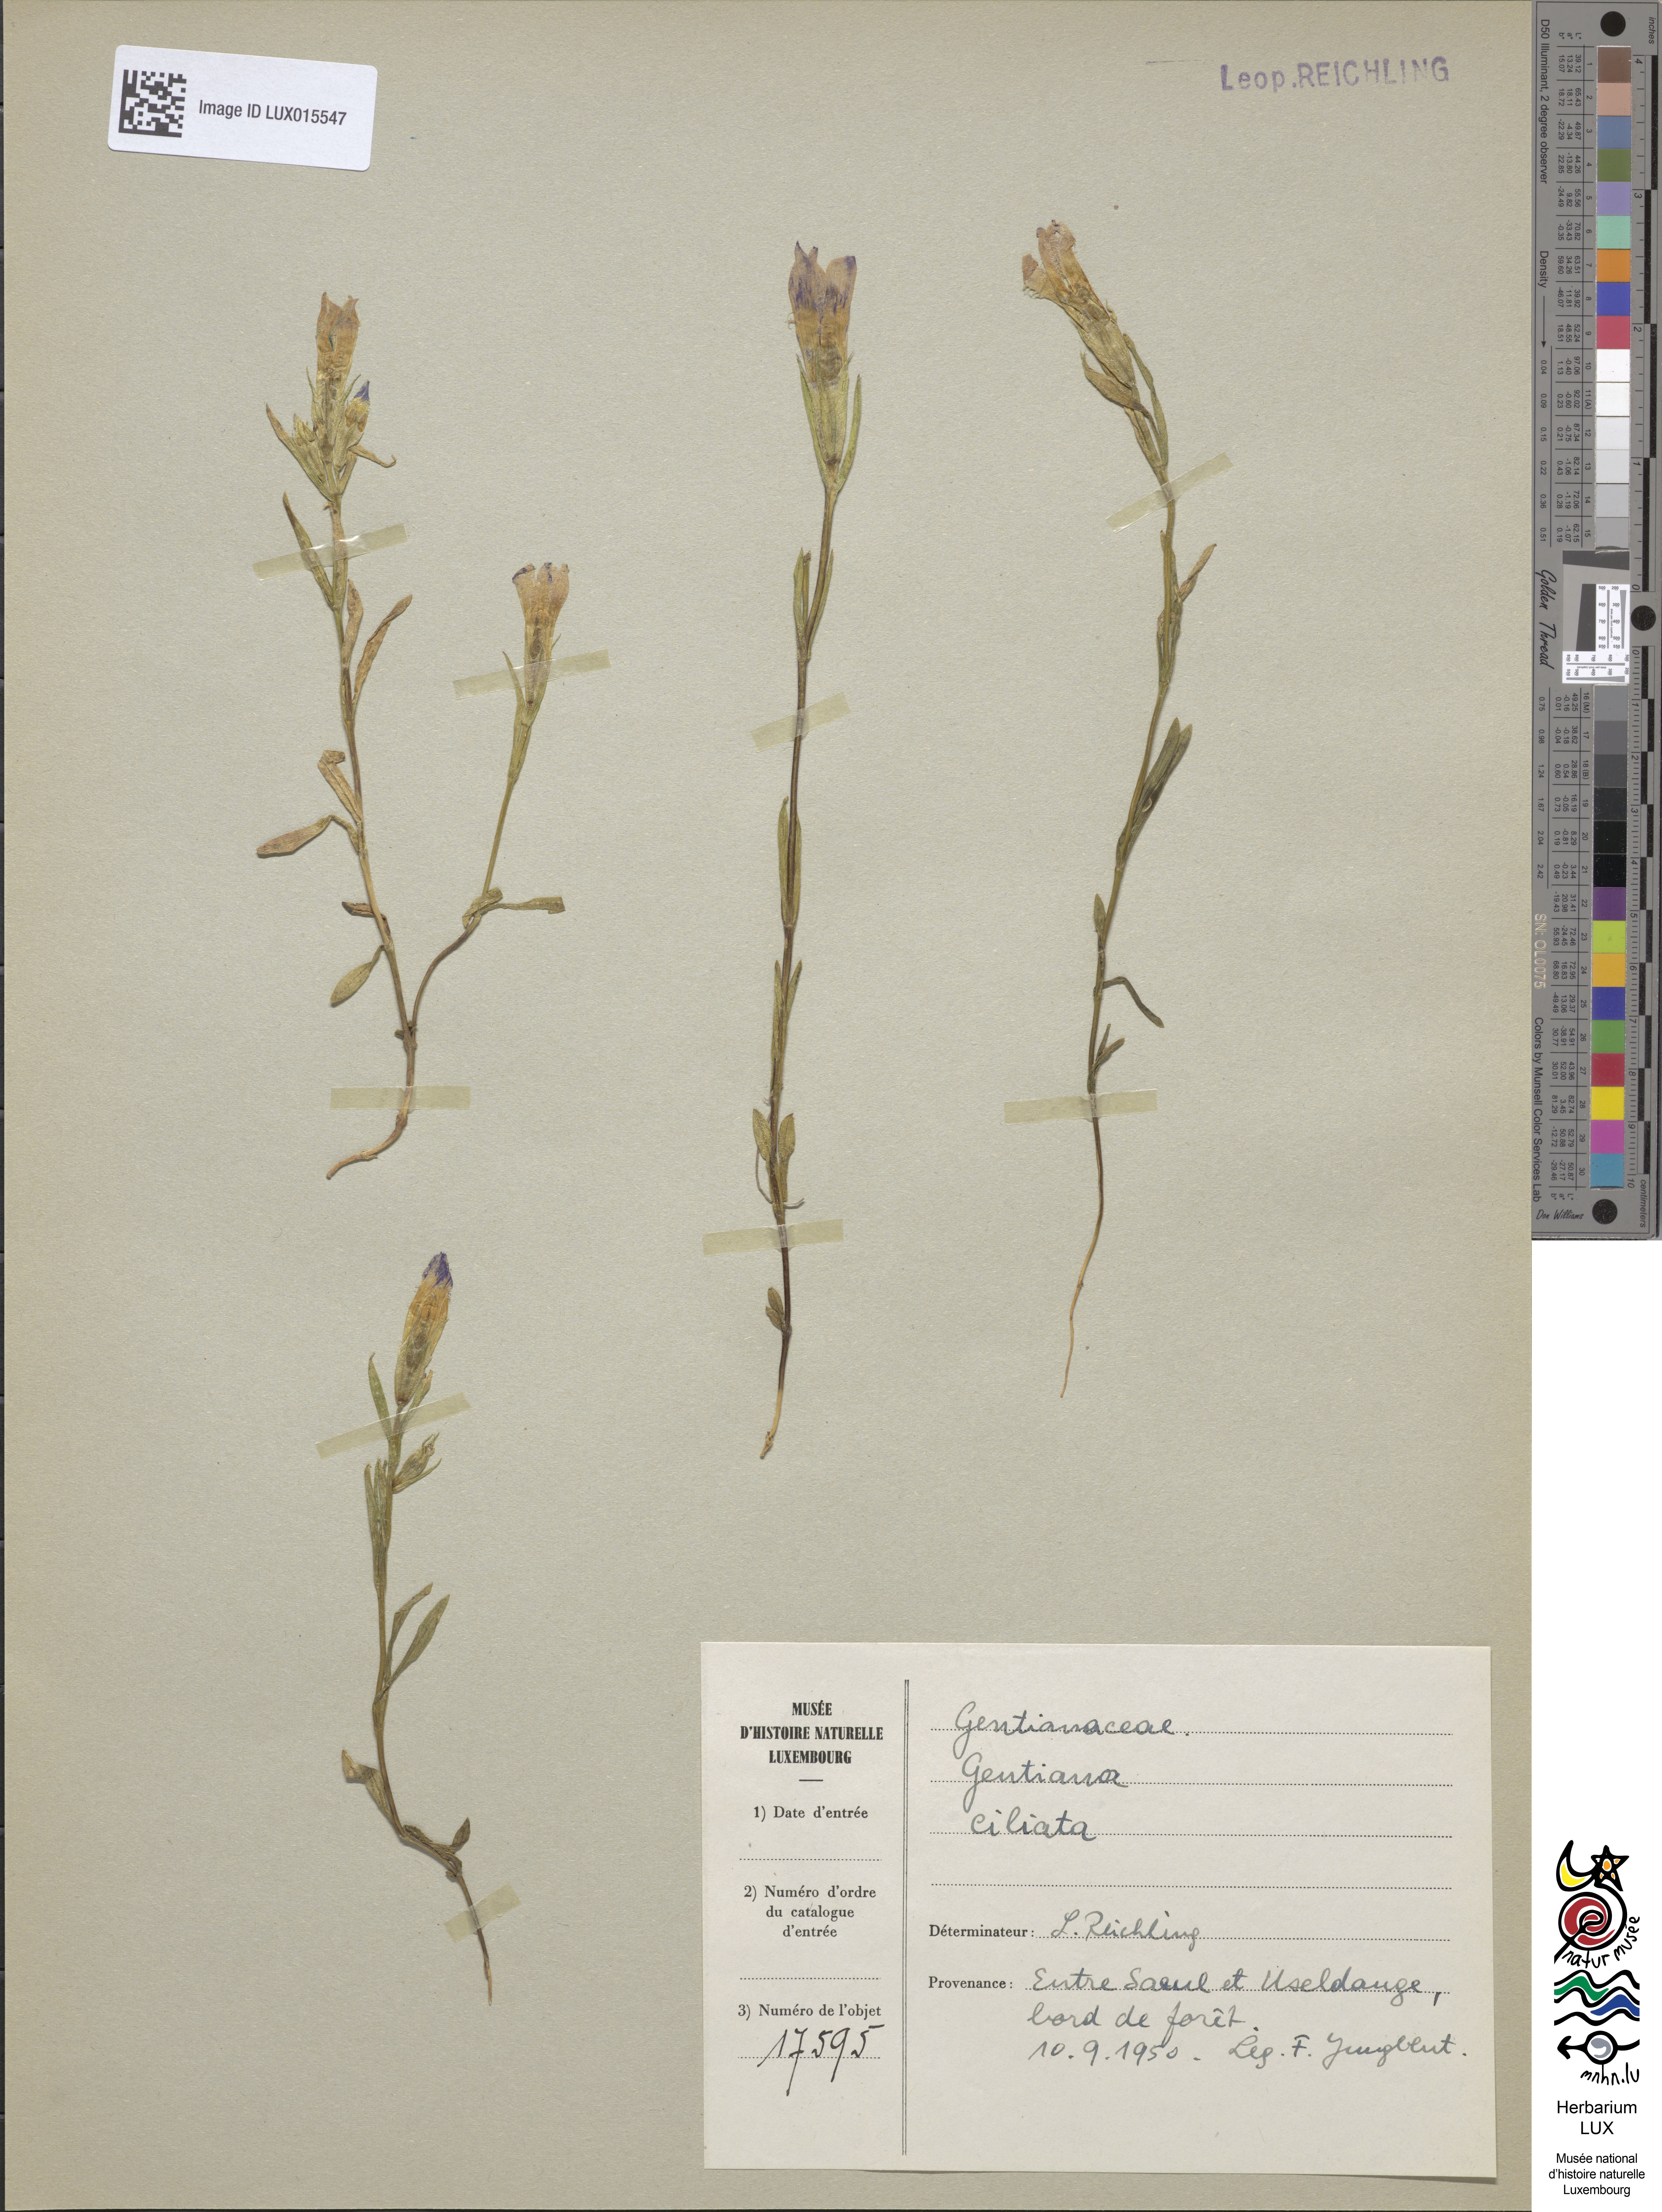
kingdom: Plantae
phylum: Tracheophyta
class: Magnoliopsida
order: Gentianales
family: Gentianaceae
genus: Gentianopsis
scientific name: Gentianopsis ciliata
